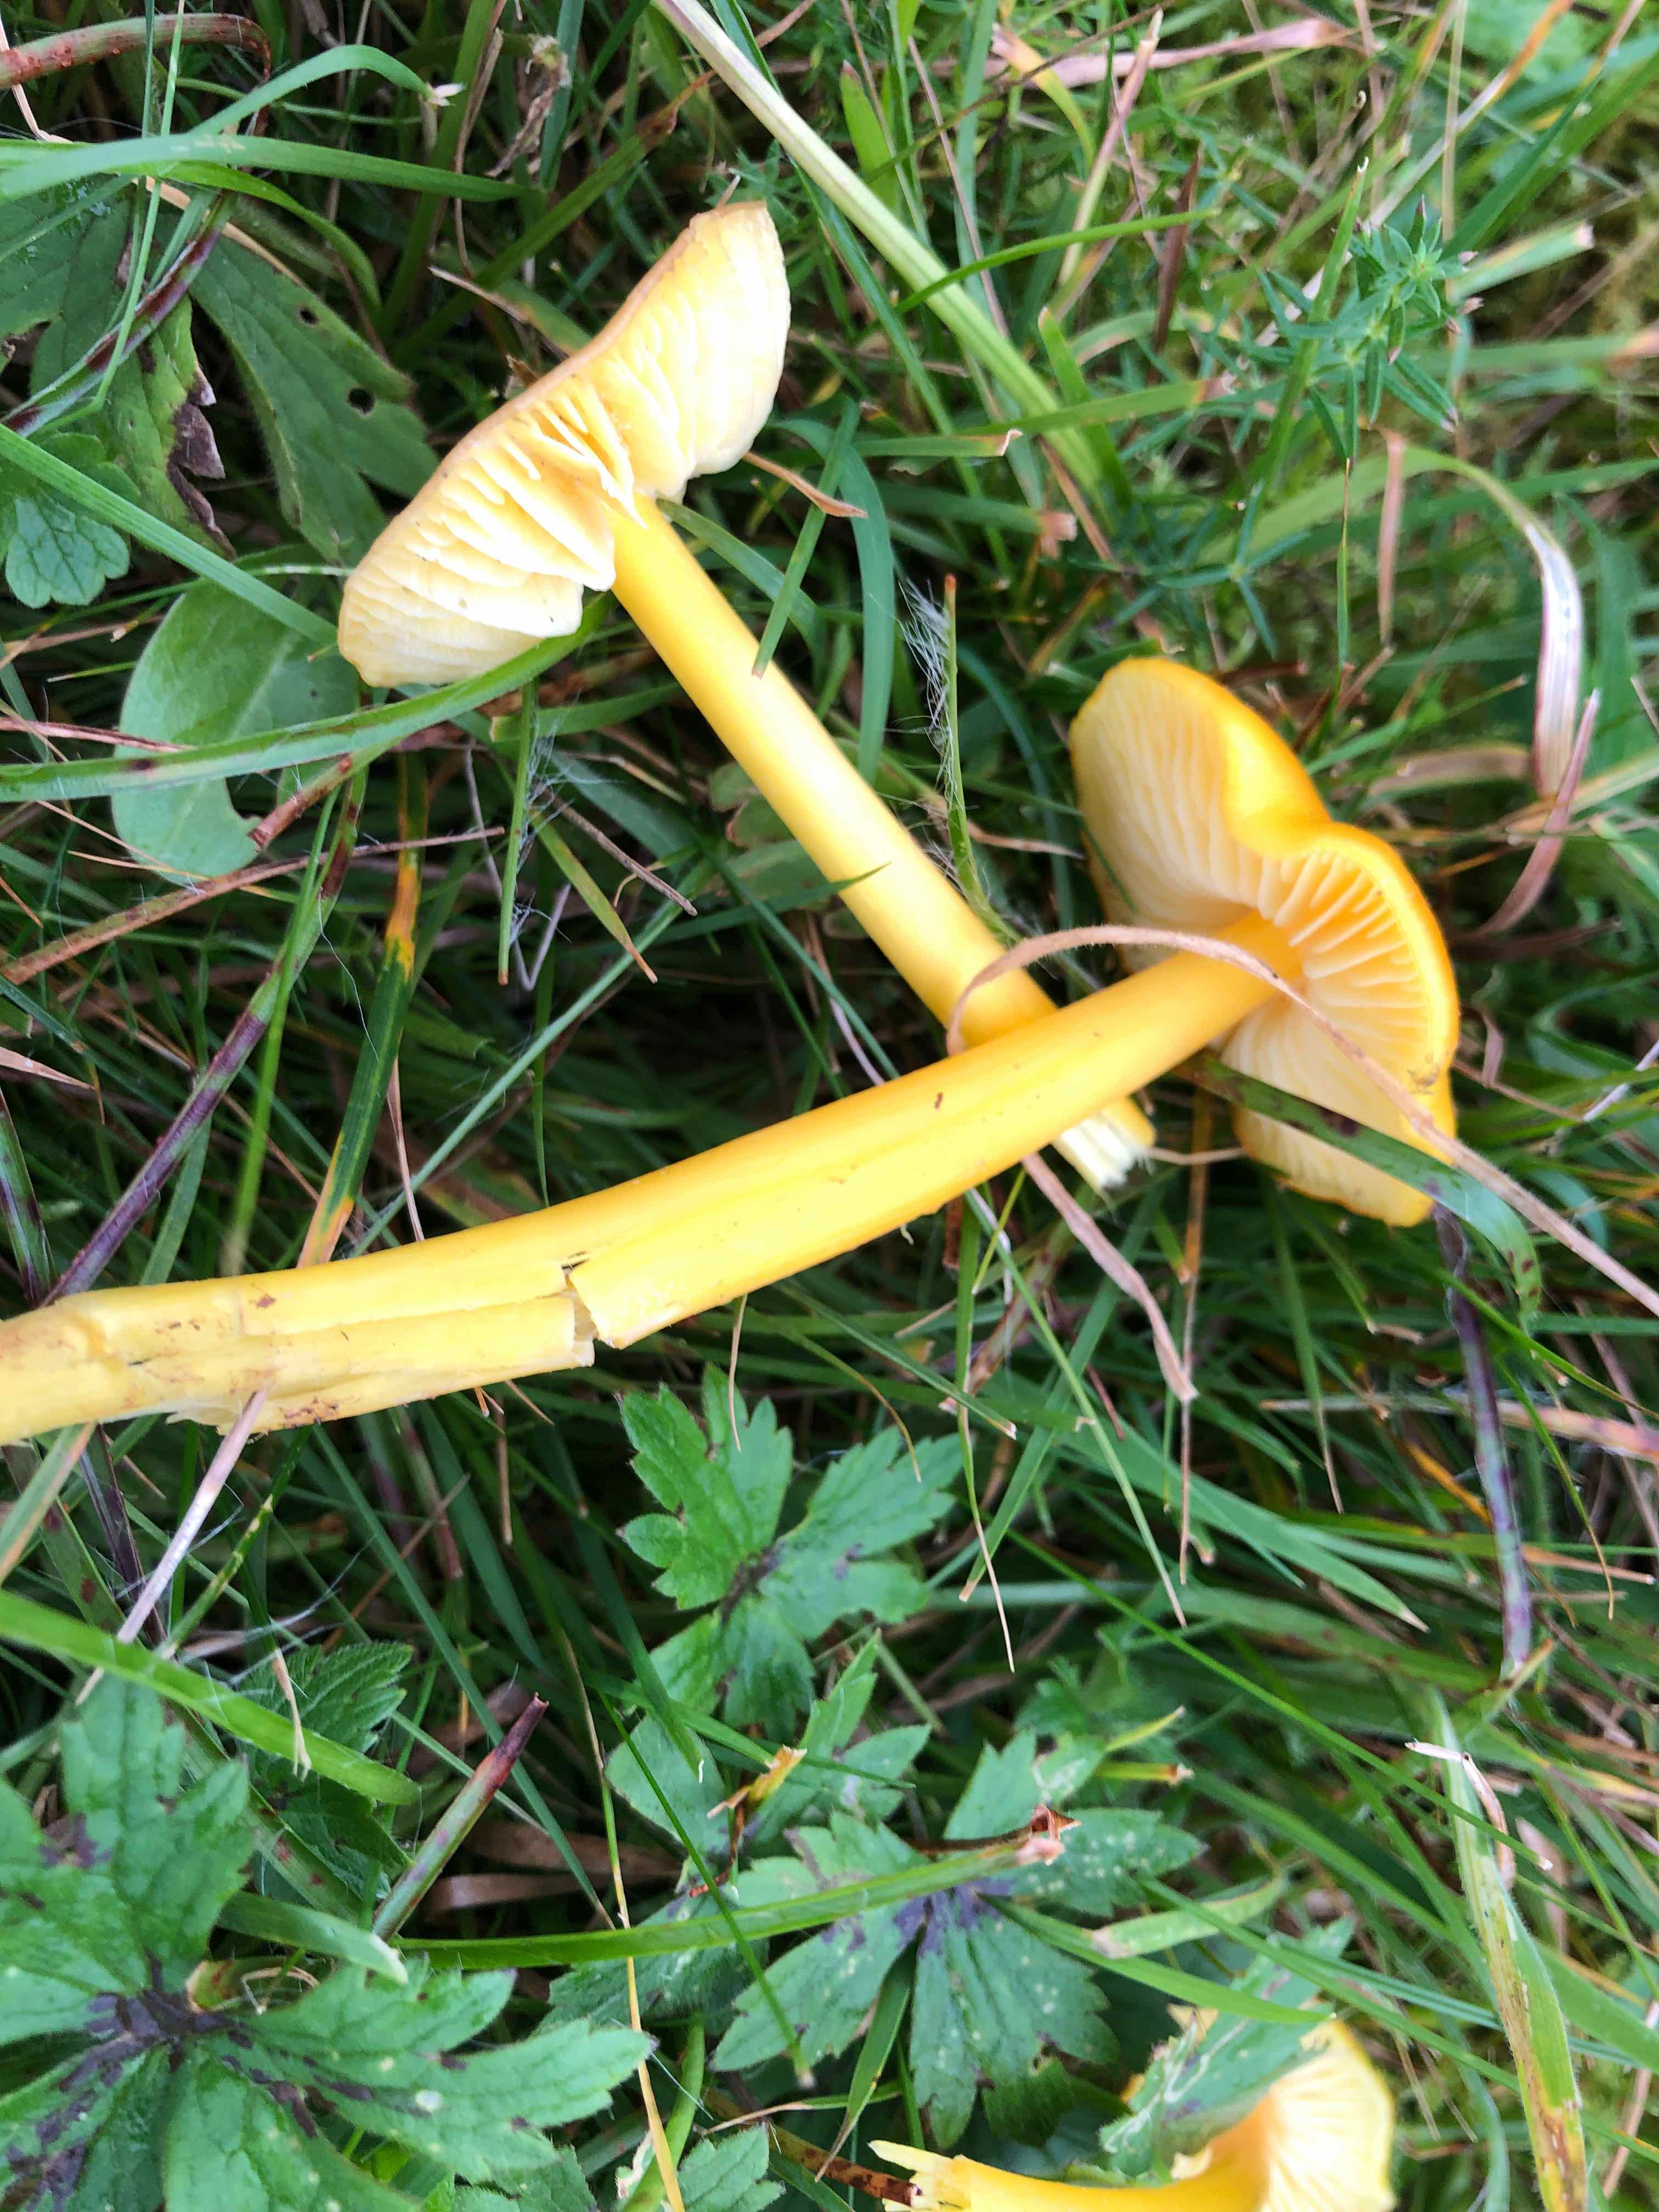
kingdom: Fungi
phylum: Basidiomycota
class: Agaricomycetes
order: Agaricales
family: Hygrophoraceae
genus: Hygrocybe
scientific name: Hygrocybe chlorophana
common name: gul vokshat
